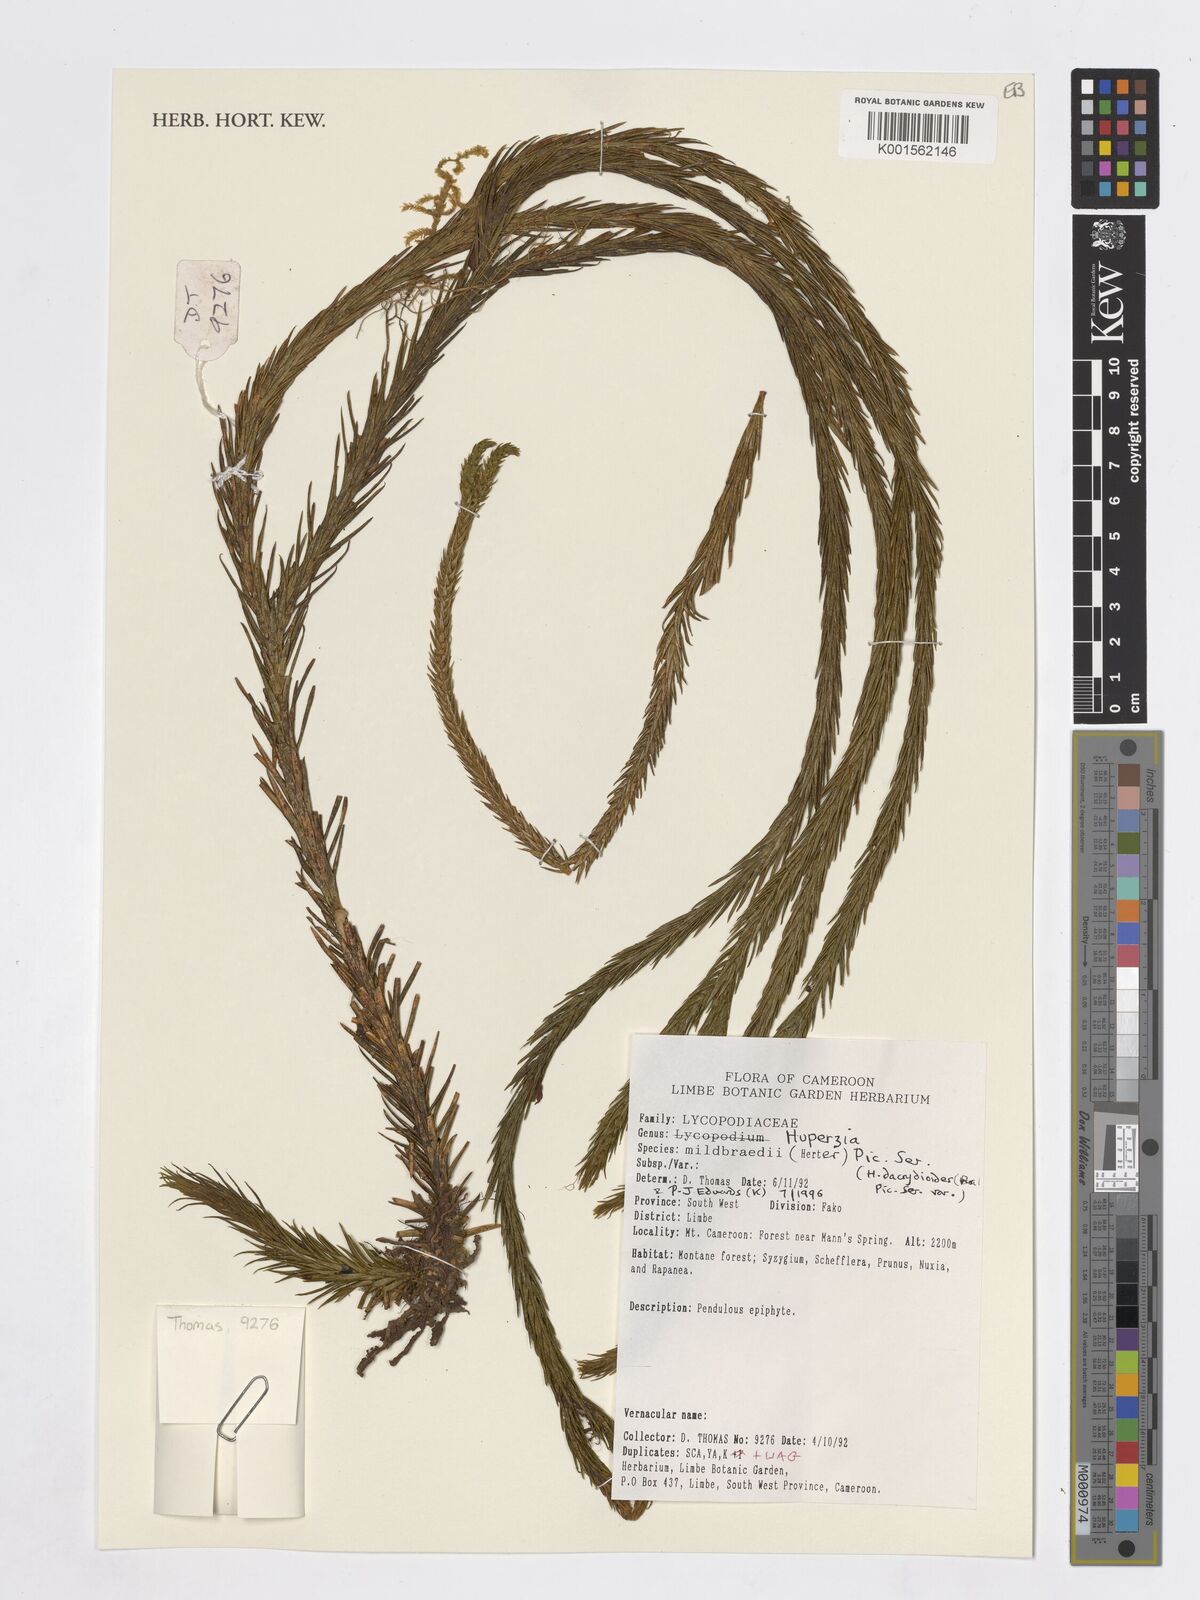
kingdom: Plantae
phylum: Tracheophyta
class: Lycopodiopsida
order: Lycopodiales
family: Lycopodiaceae
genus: Phlegmariurus
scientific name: Phlegmariurus dacrydioides
